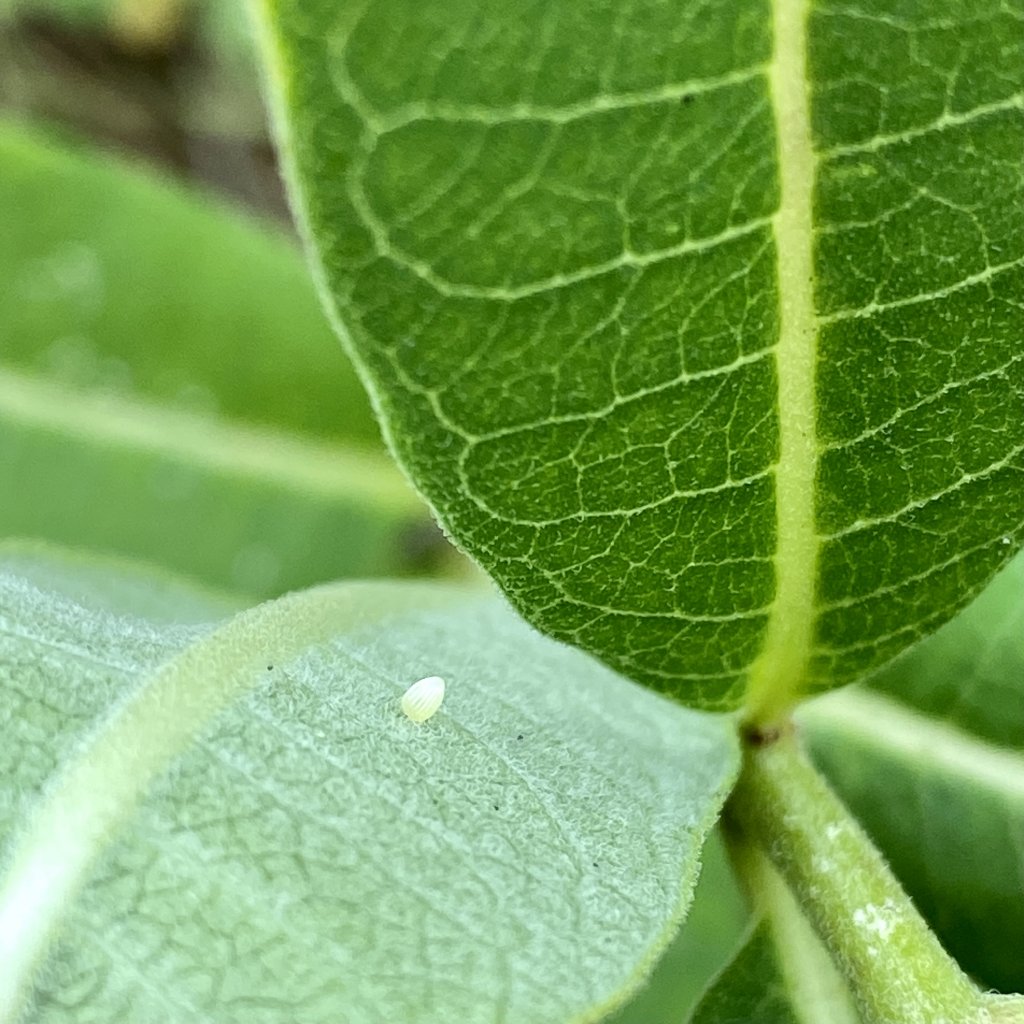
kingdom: Animalia
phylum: Arthropoda
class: Insecta
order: Lepidoptera
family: Nymphalidae
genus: Danaus
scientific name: Danaus plexippus
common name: Monarch
